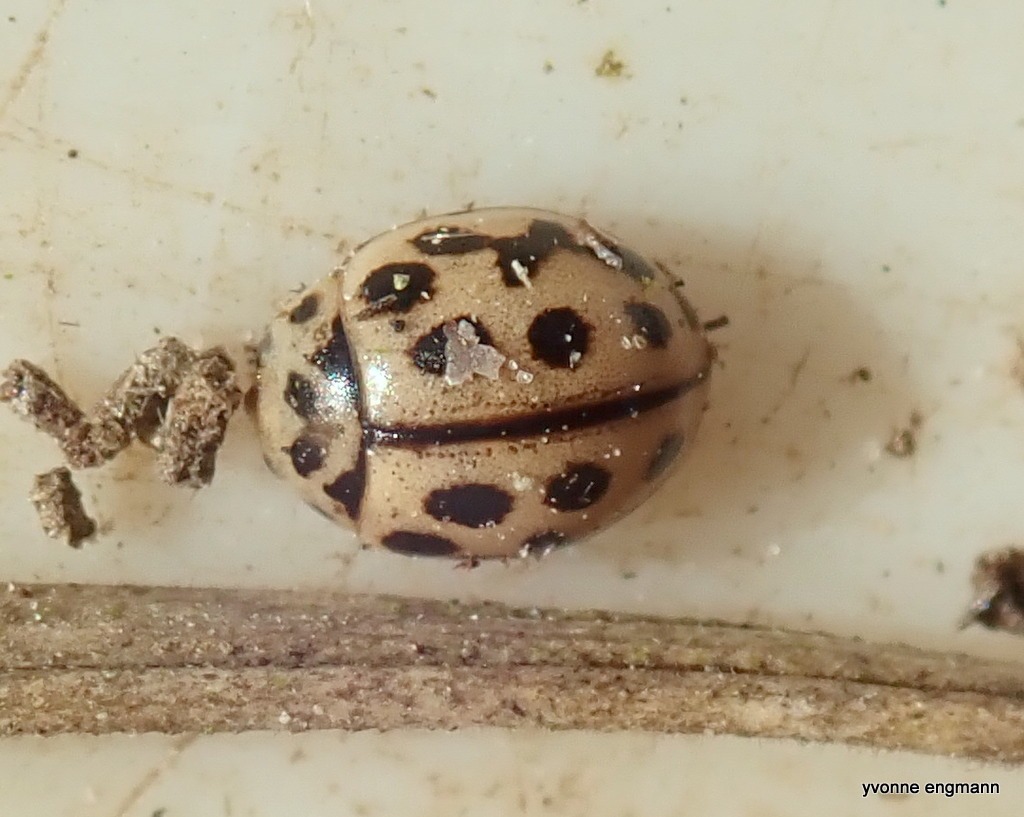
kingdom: Animalia
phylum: Arthropoda
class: Insecta
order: Coleoptera
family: Coccinellidae
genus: Tytthaspis
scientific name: Tytthaspis sedecimpunctata
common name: Sekstenprikket mariehøne
